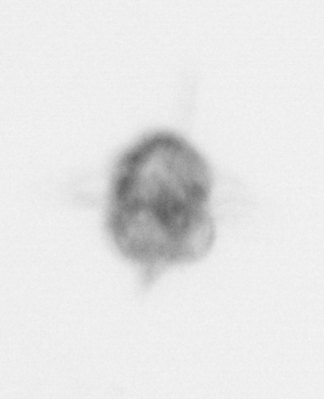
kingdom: Animalia
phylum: Arthropoda
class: Malacostraca
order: Decapoda
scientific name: Decapoda
